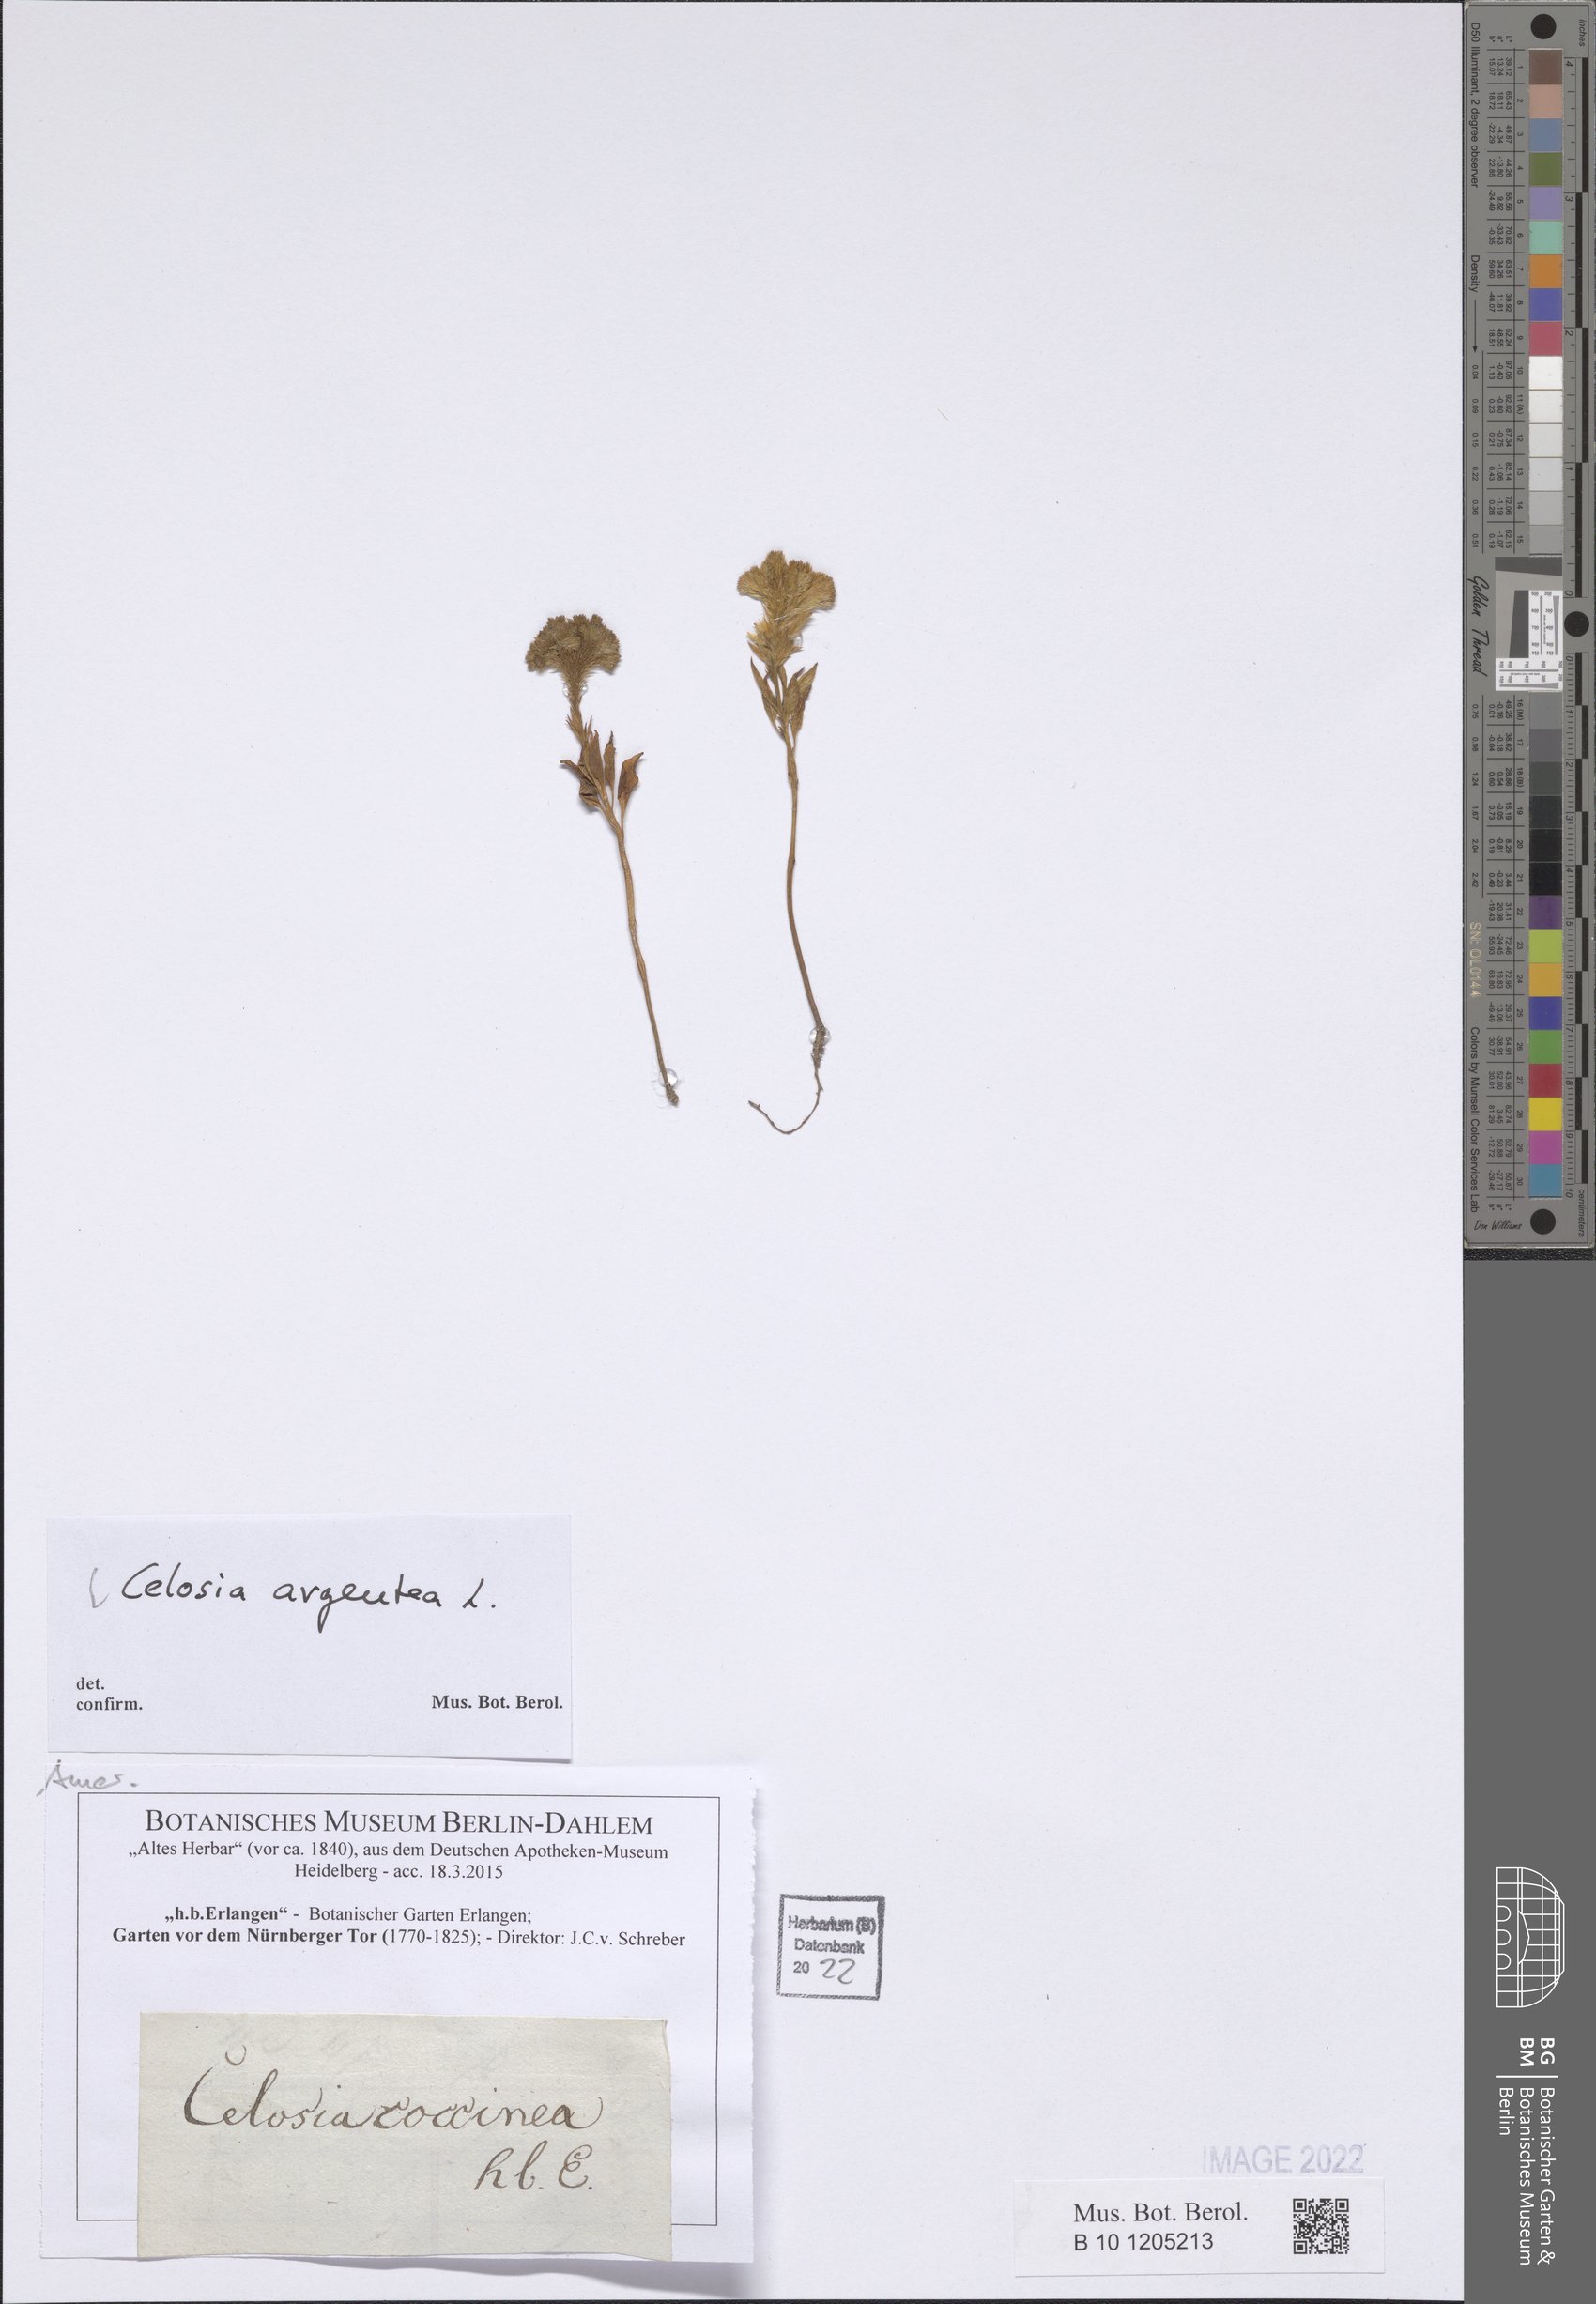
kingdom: Plantae
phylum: Tracheophyta
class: Magnoliopsida
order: Caryophyllales
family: Amaranthaceae
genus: Celosia
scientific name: Celosia argentea
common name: Feather cockscomb
